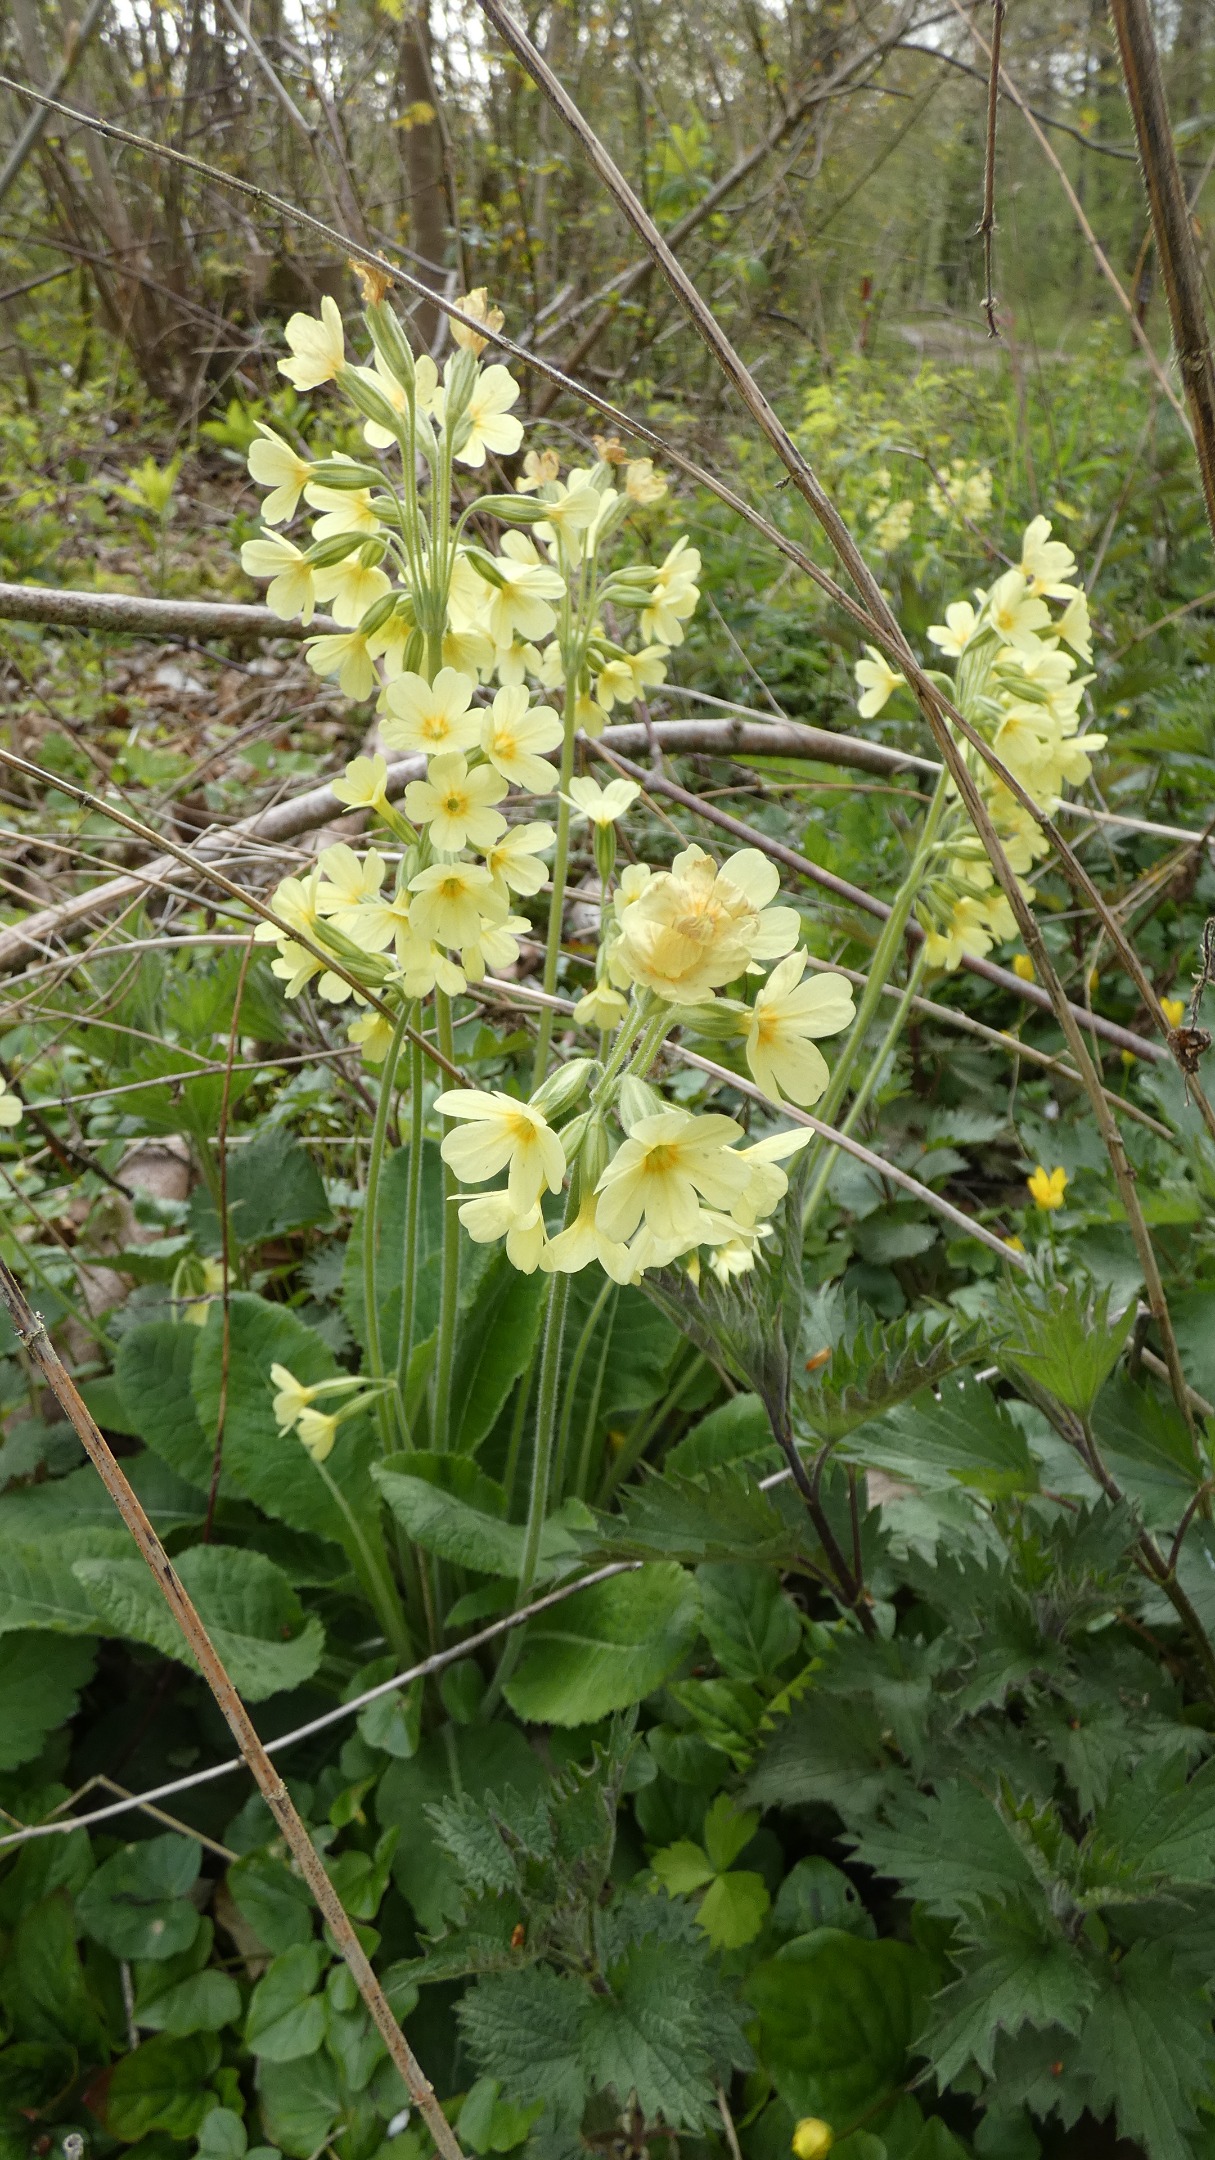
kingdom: Plantae
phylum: Tracheophyta
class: Magnoliopsida
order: Ericales
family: Primulaceae
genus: Primula
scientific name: Primula elatior
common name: Fladkravet kodriver
